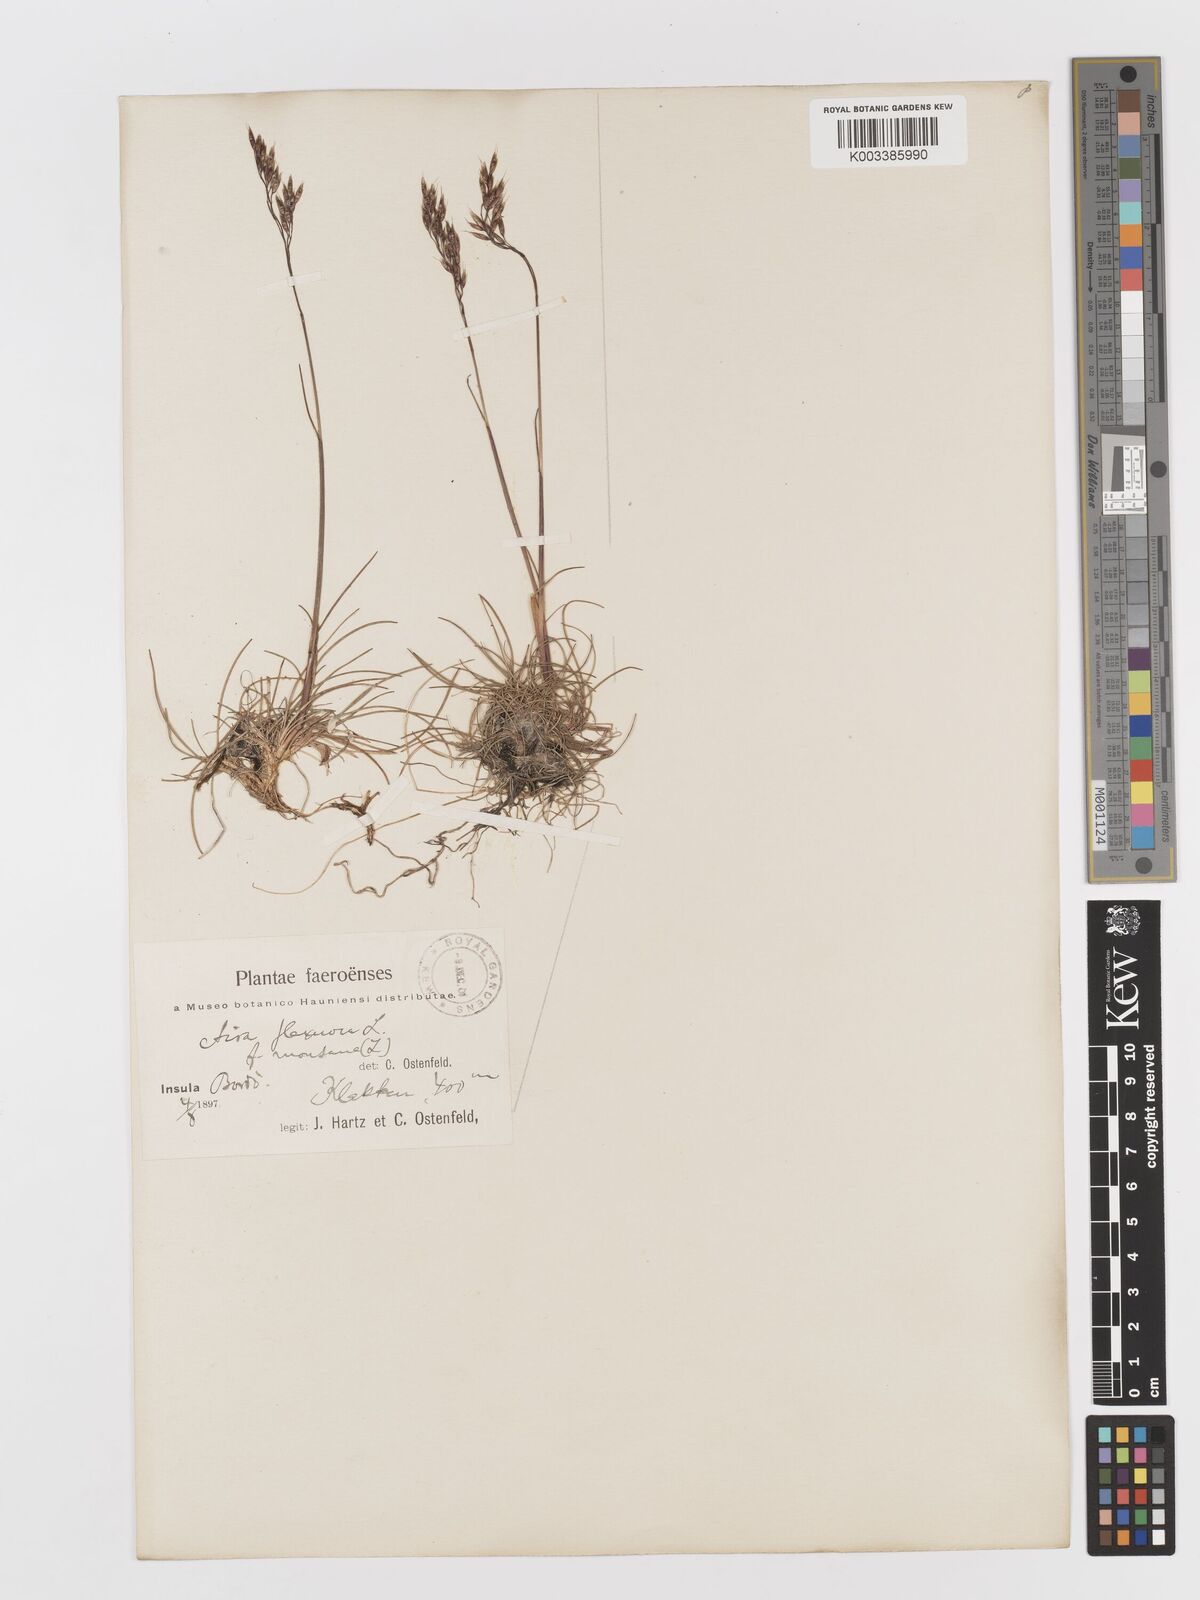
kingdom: Plantae
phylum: Tracheophyta
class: Liliopsida
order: Poales
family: Poaceae
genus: Avenella
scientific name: Avenella flexuosa
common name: Wavy hairgrass
